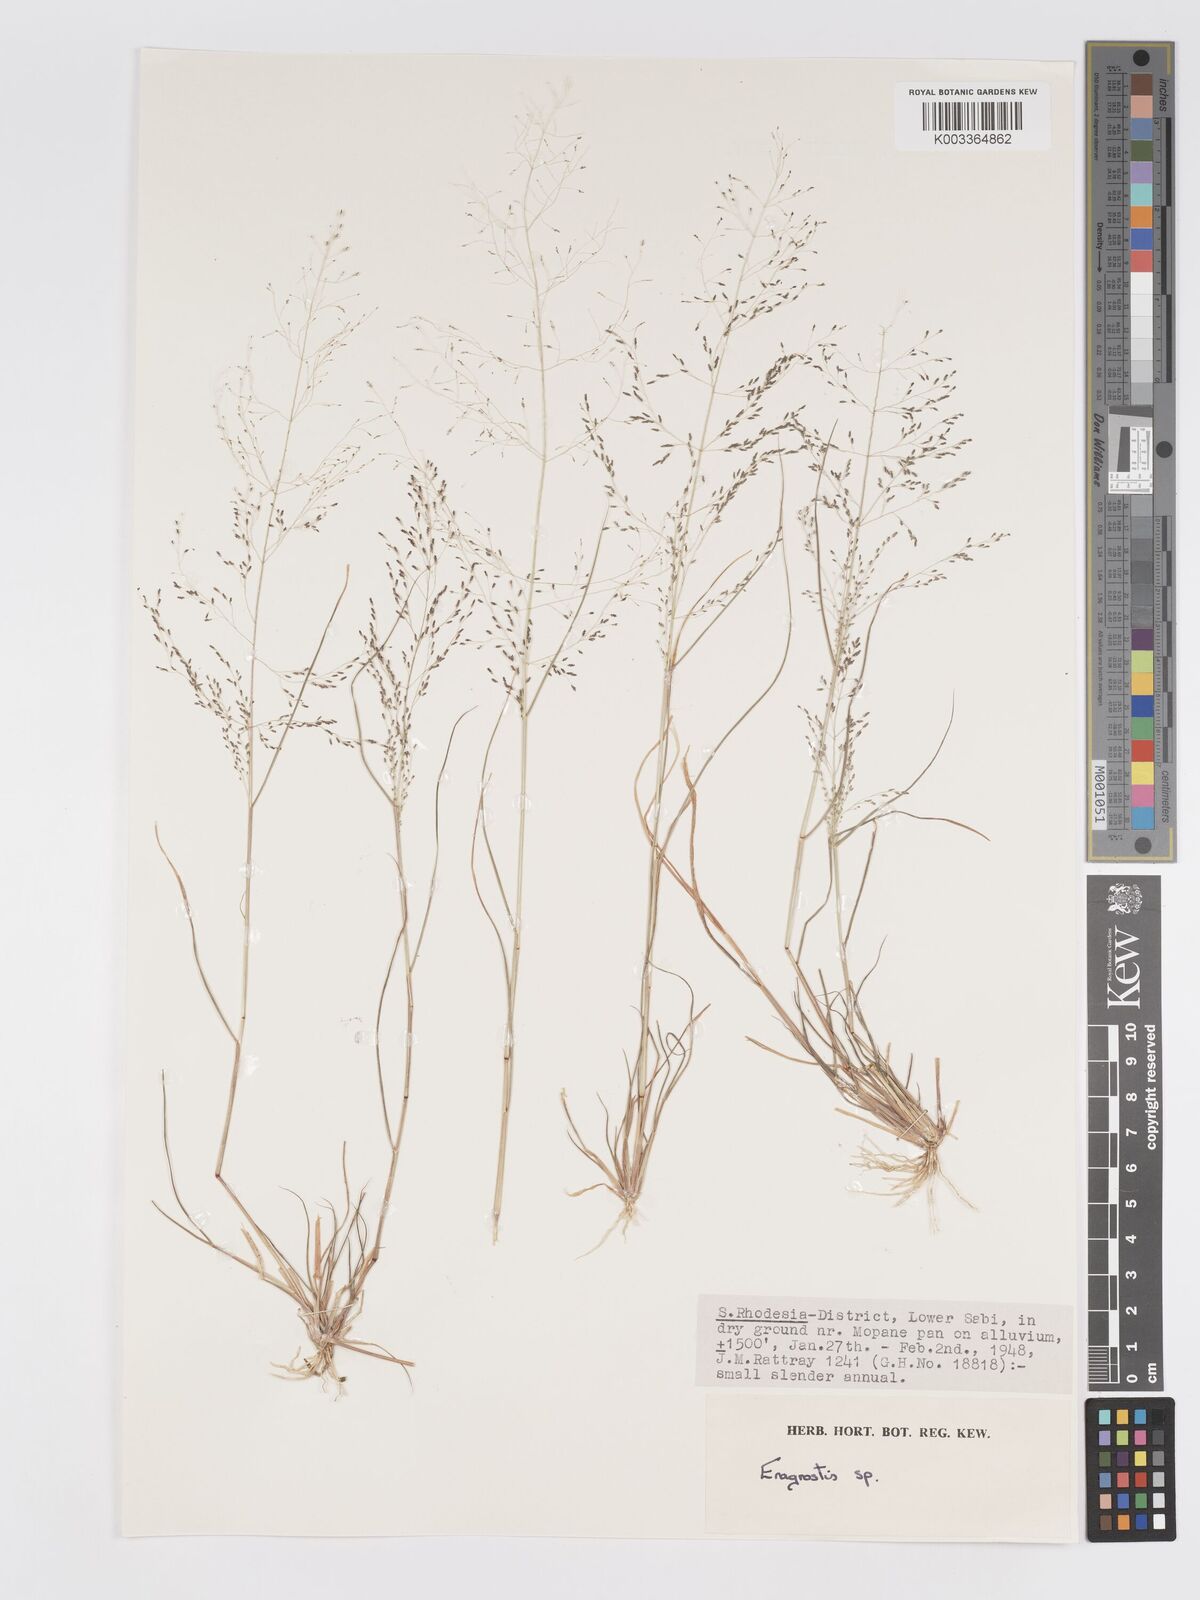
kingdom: Plantae
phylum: Tracheophyta
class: Liliopsida
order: Poales
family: Poaceae
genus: Eragrostis
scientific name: Eragrostis aethiopica
